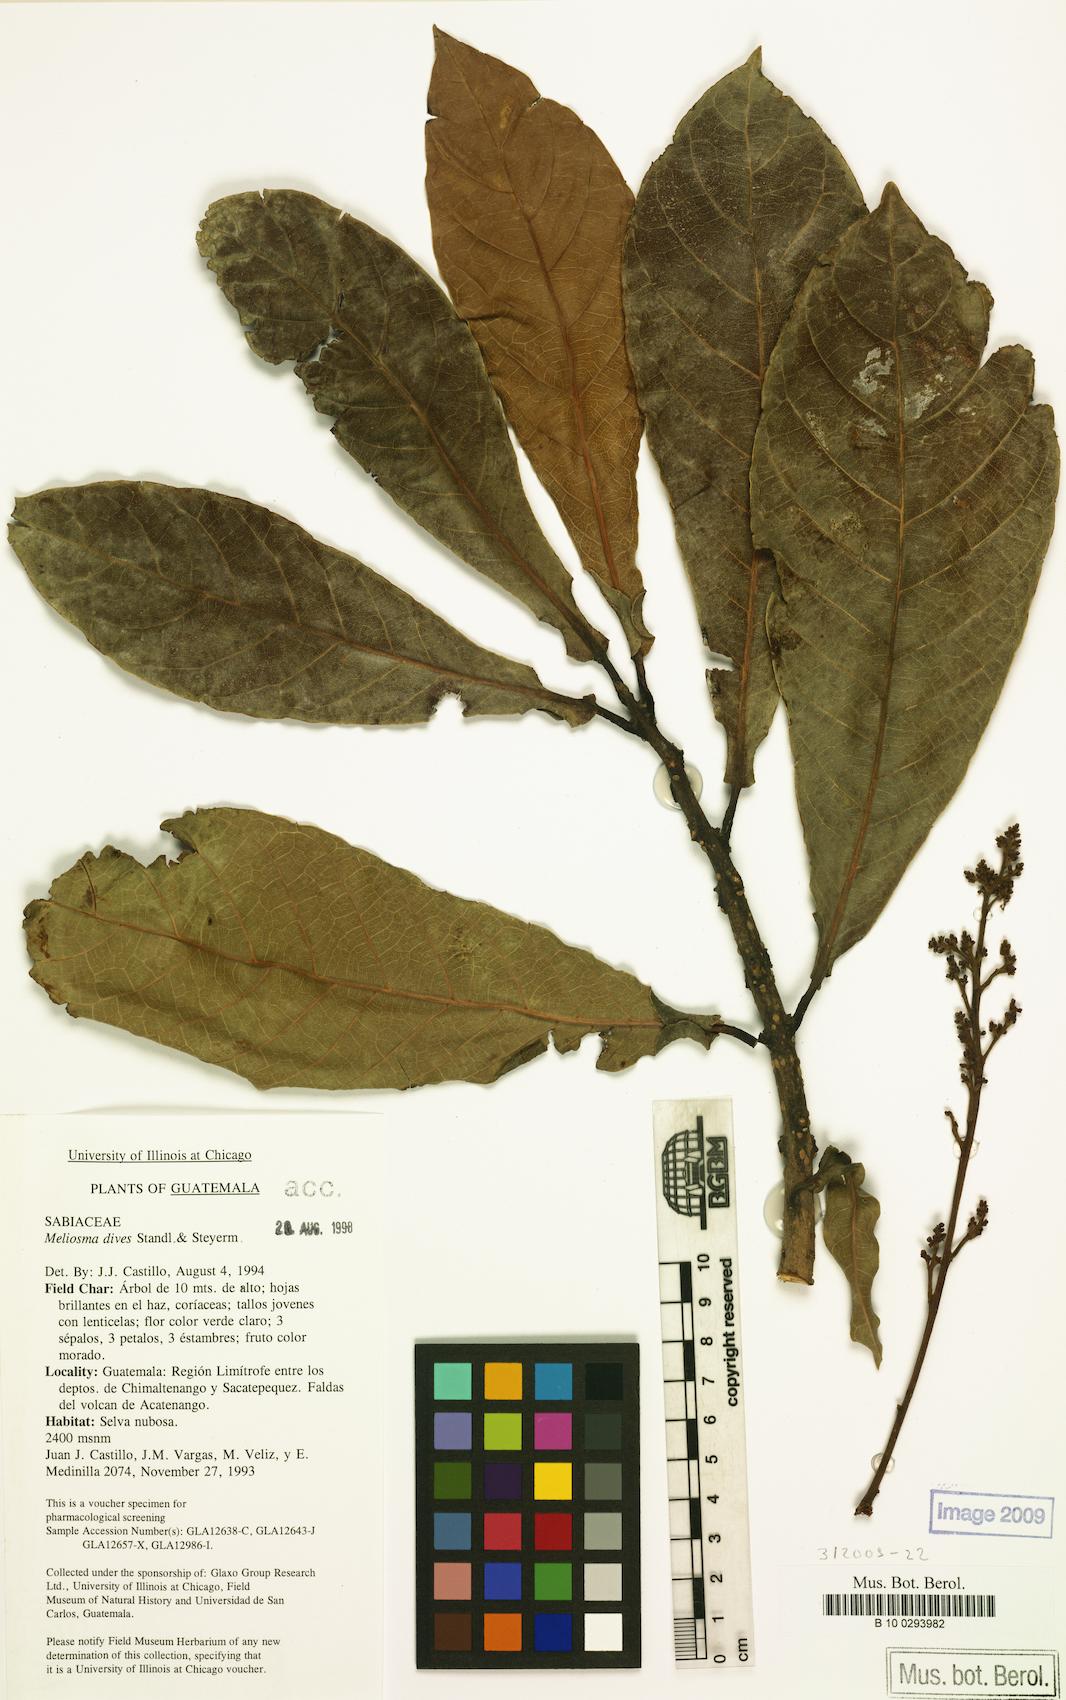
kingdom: Plantae
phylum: Tracheophyta
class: Magnoliopsida
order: Proteales
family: Sabiaceae
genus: Meliosma
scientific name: Meliosma idiopoda
